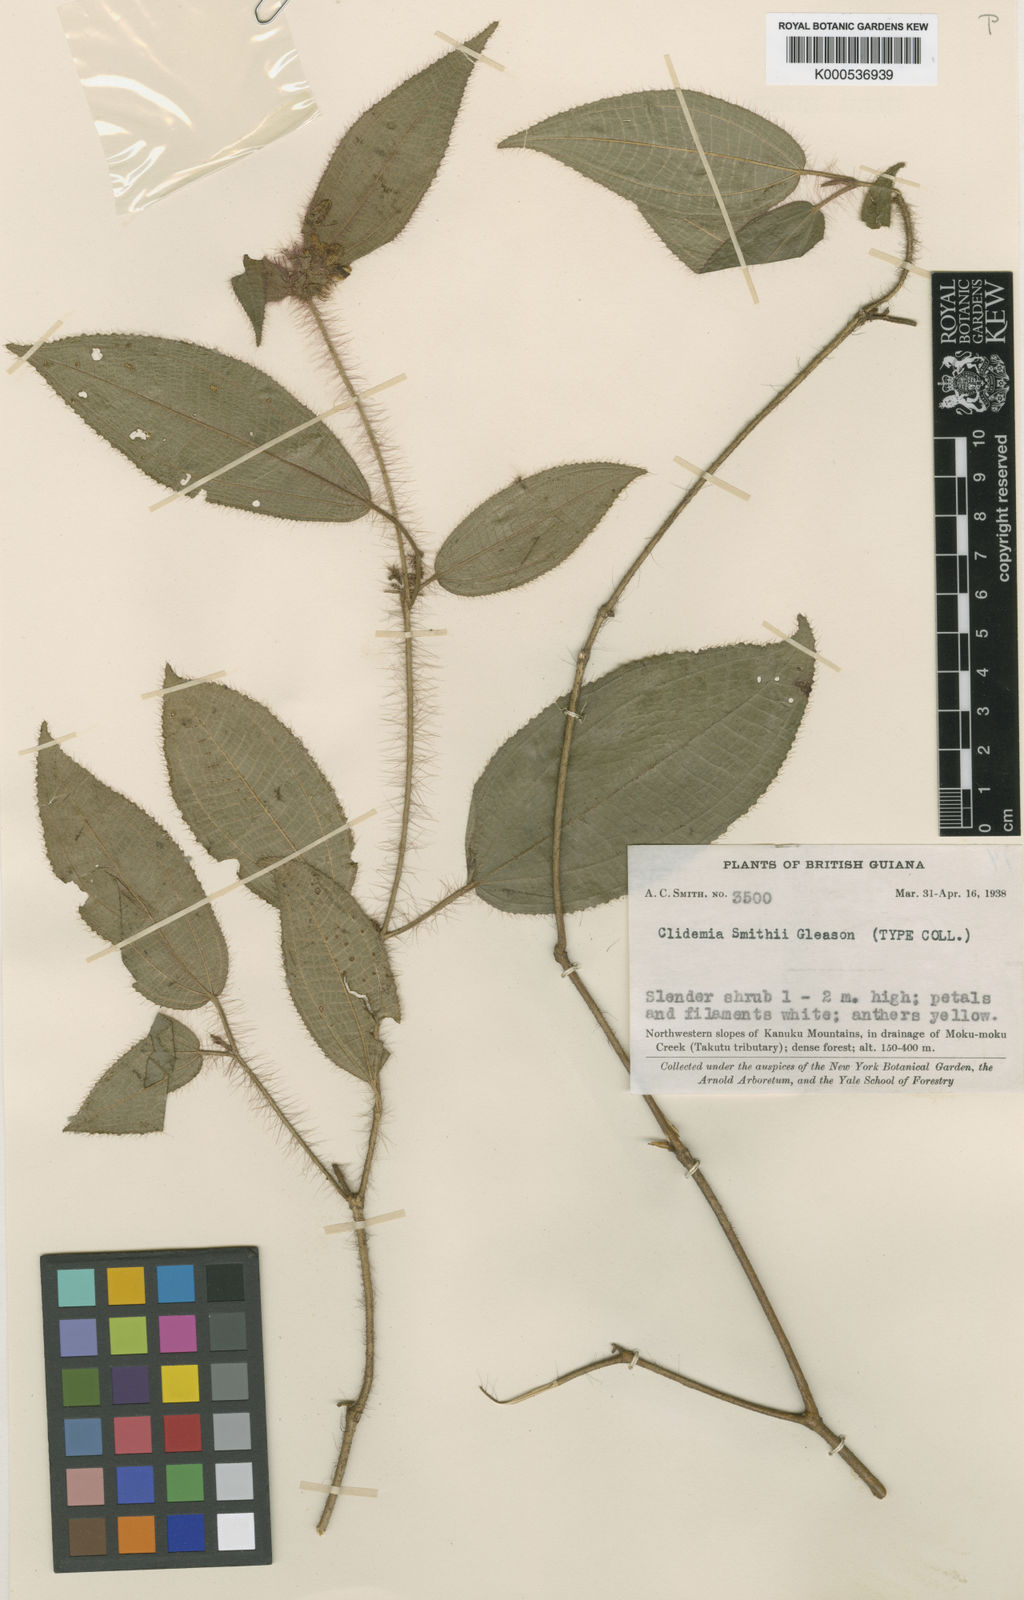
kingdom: Plantae
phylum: Tracheophyta
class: Magnoliopsida
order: Myrtales
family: Melastomataceae
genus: Miconia
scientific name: Miconia laevifolia
